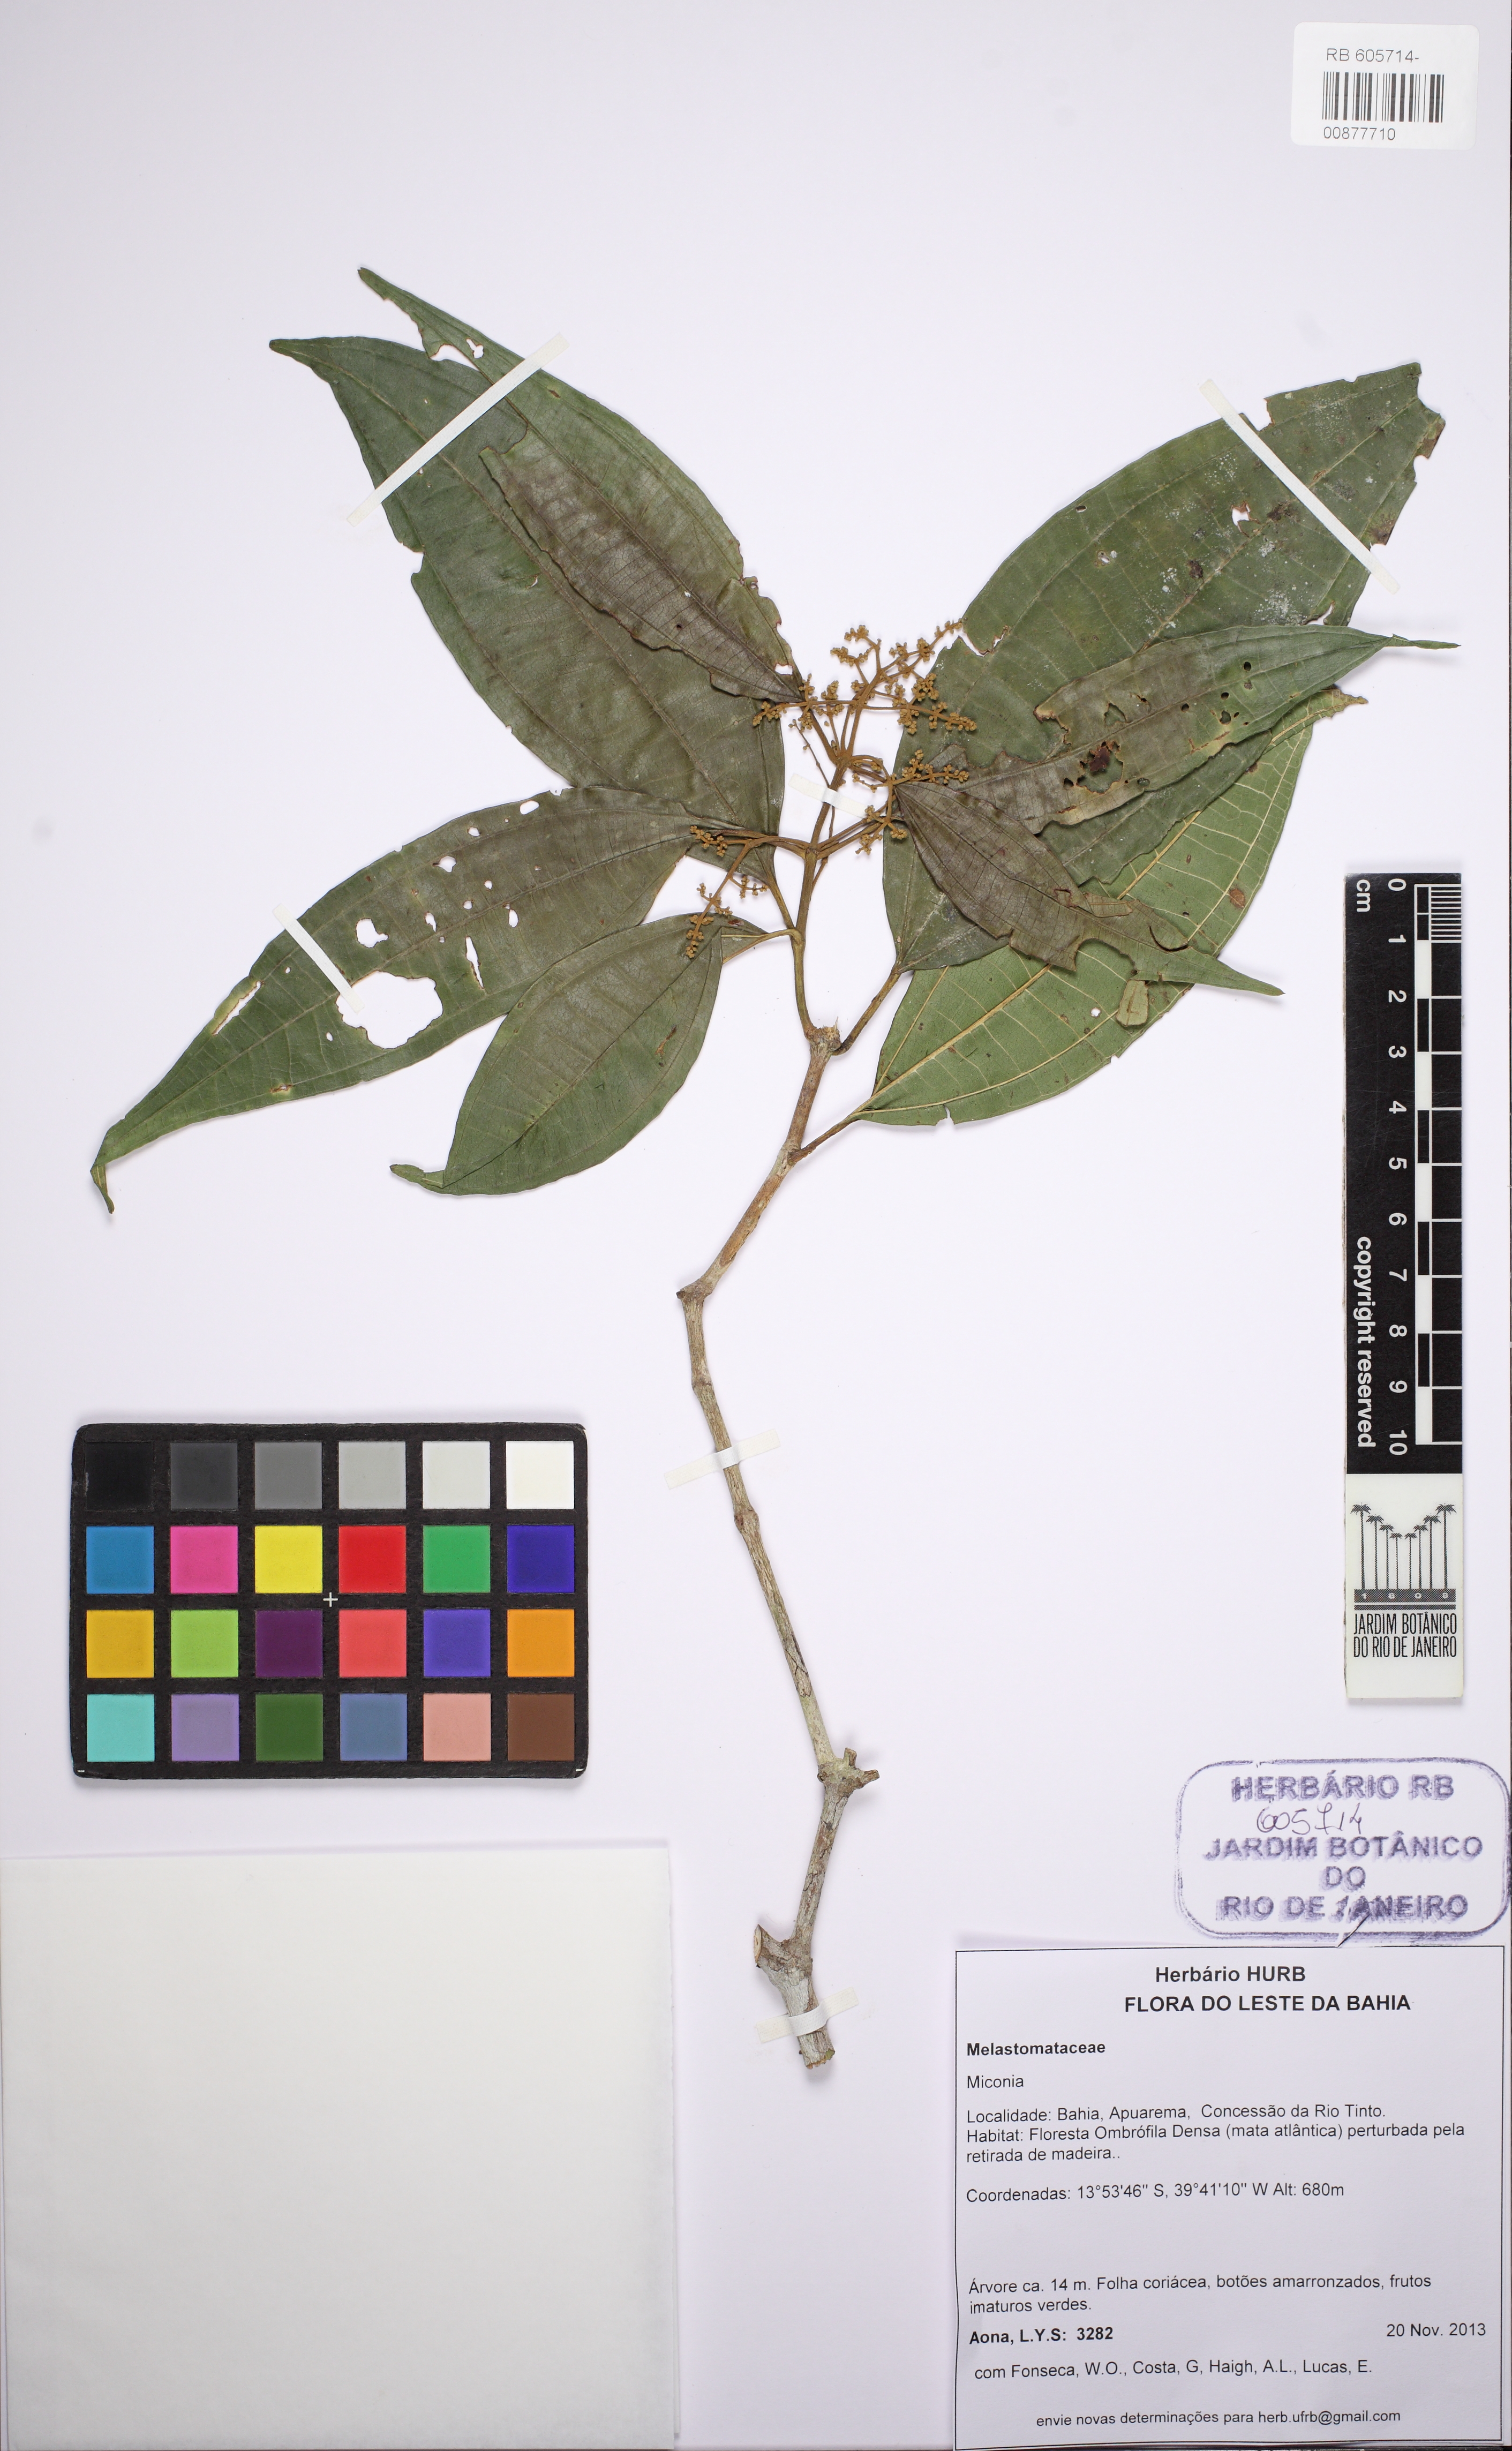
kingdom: Plantae
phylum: Tracheophyta
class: Magnoliopsida
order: Myrtales
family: Melastomataceae
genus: Miconia
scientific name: Miconia
